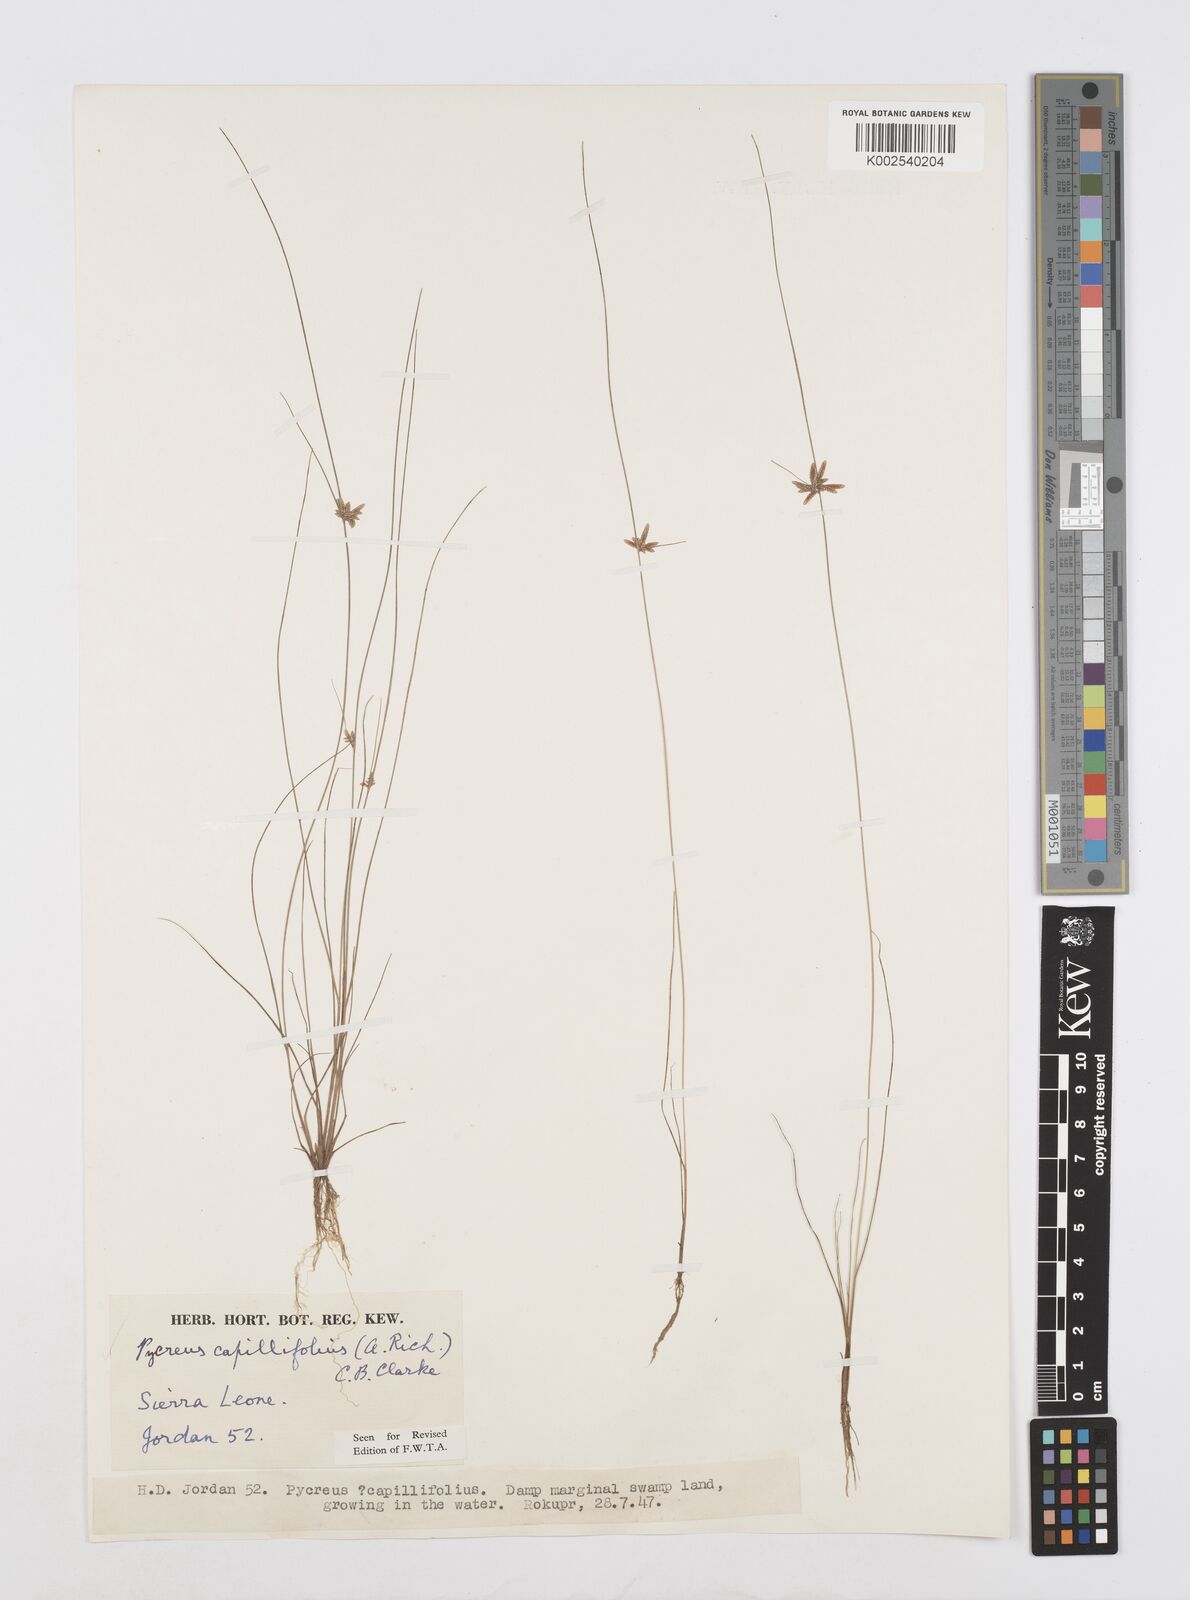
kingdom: Plantae
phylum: Tracheophyta
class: Liliopsida
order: Poales
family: Cyperaceae
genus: Cyperus
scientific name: Cyperus capillifolius
